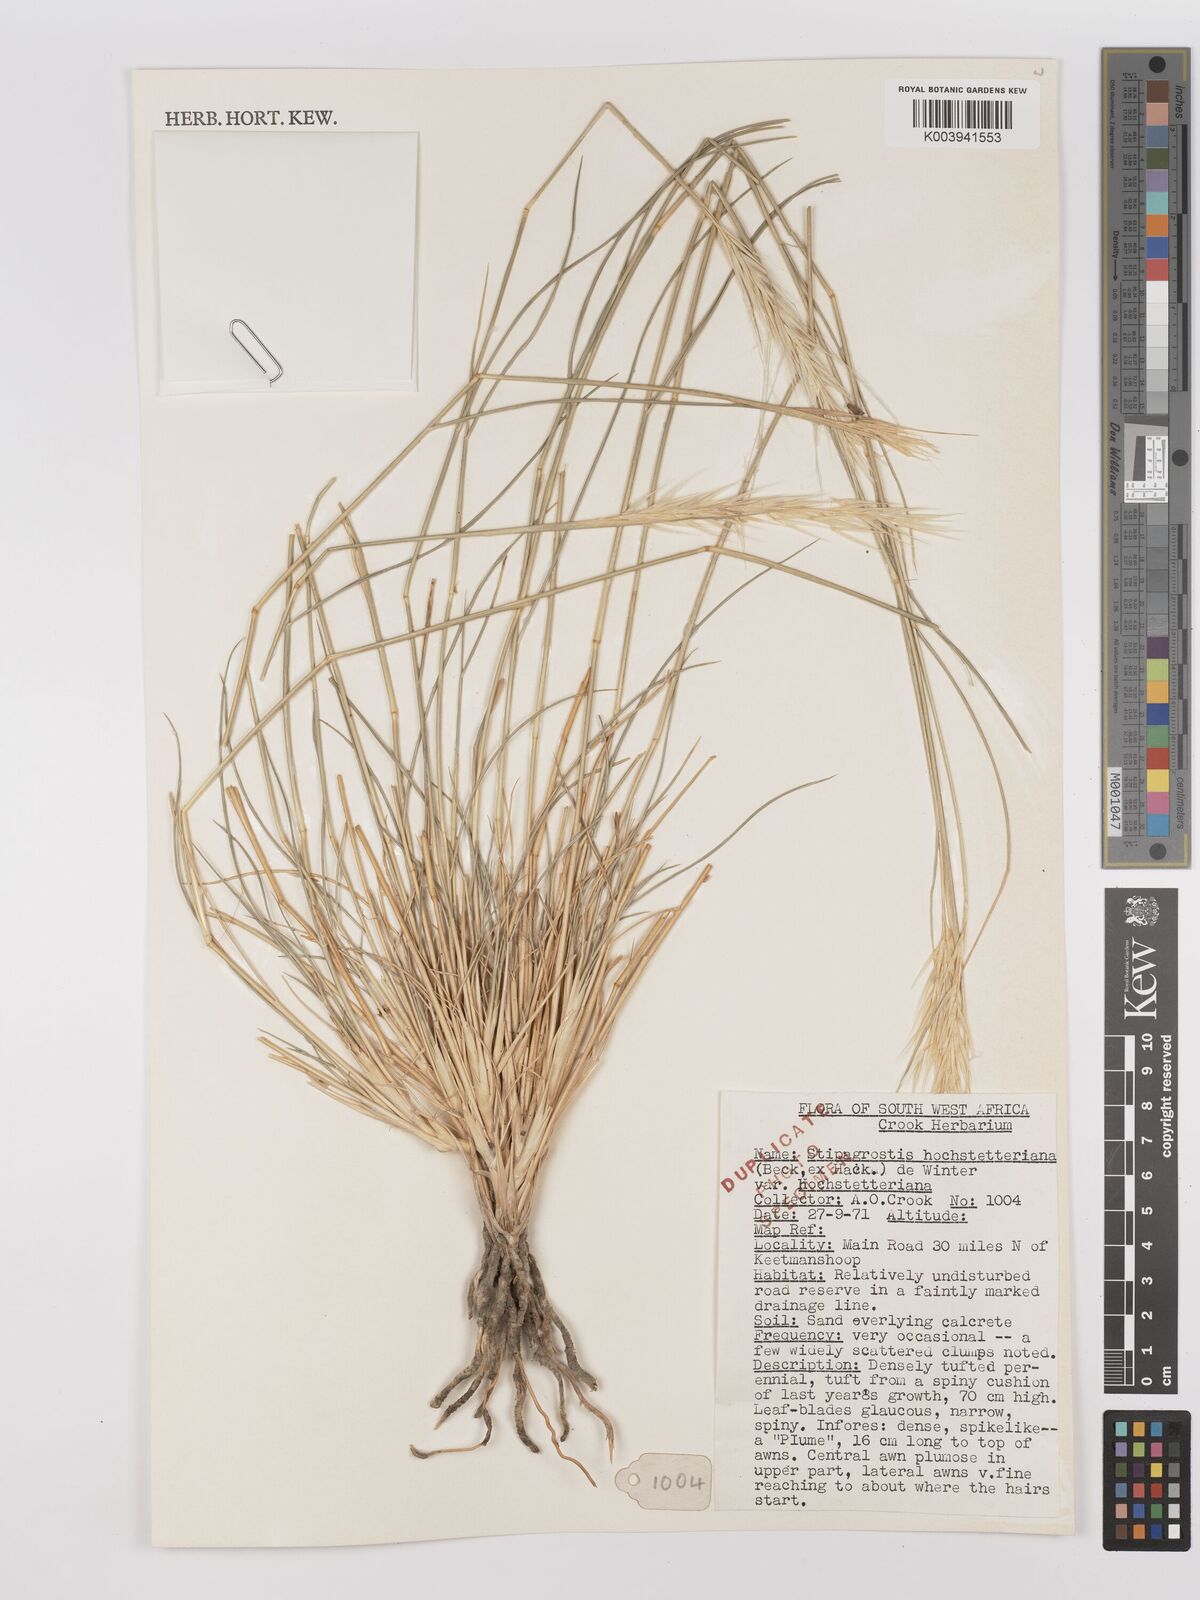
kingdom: Plantae
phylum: Tracheophyta
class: Liliopsida
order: Poales
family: Poaceae
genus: Stipagrostis
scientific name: Stipagrostis hochstetteriana
